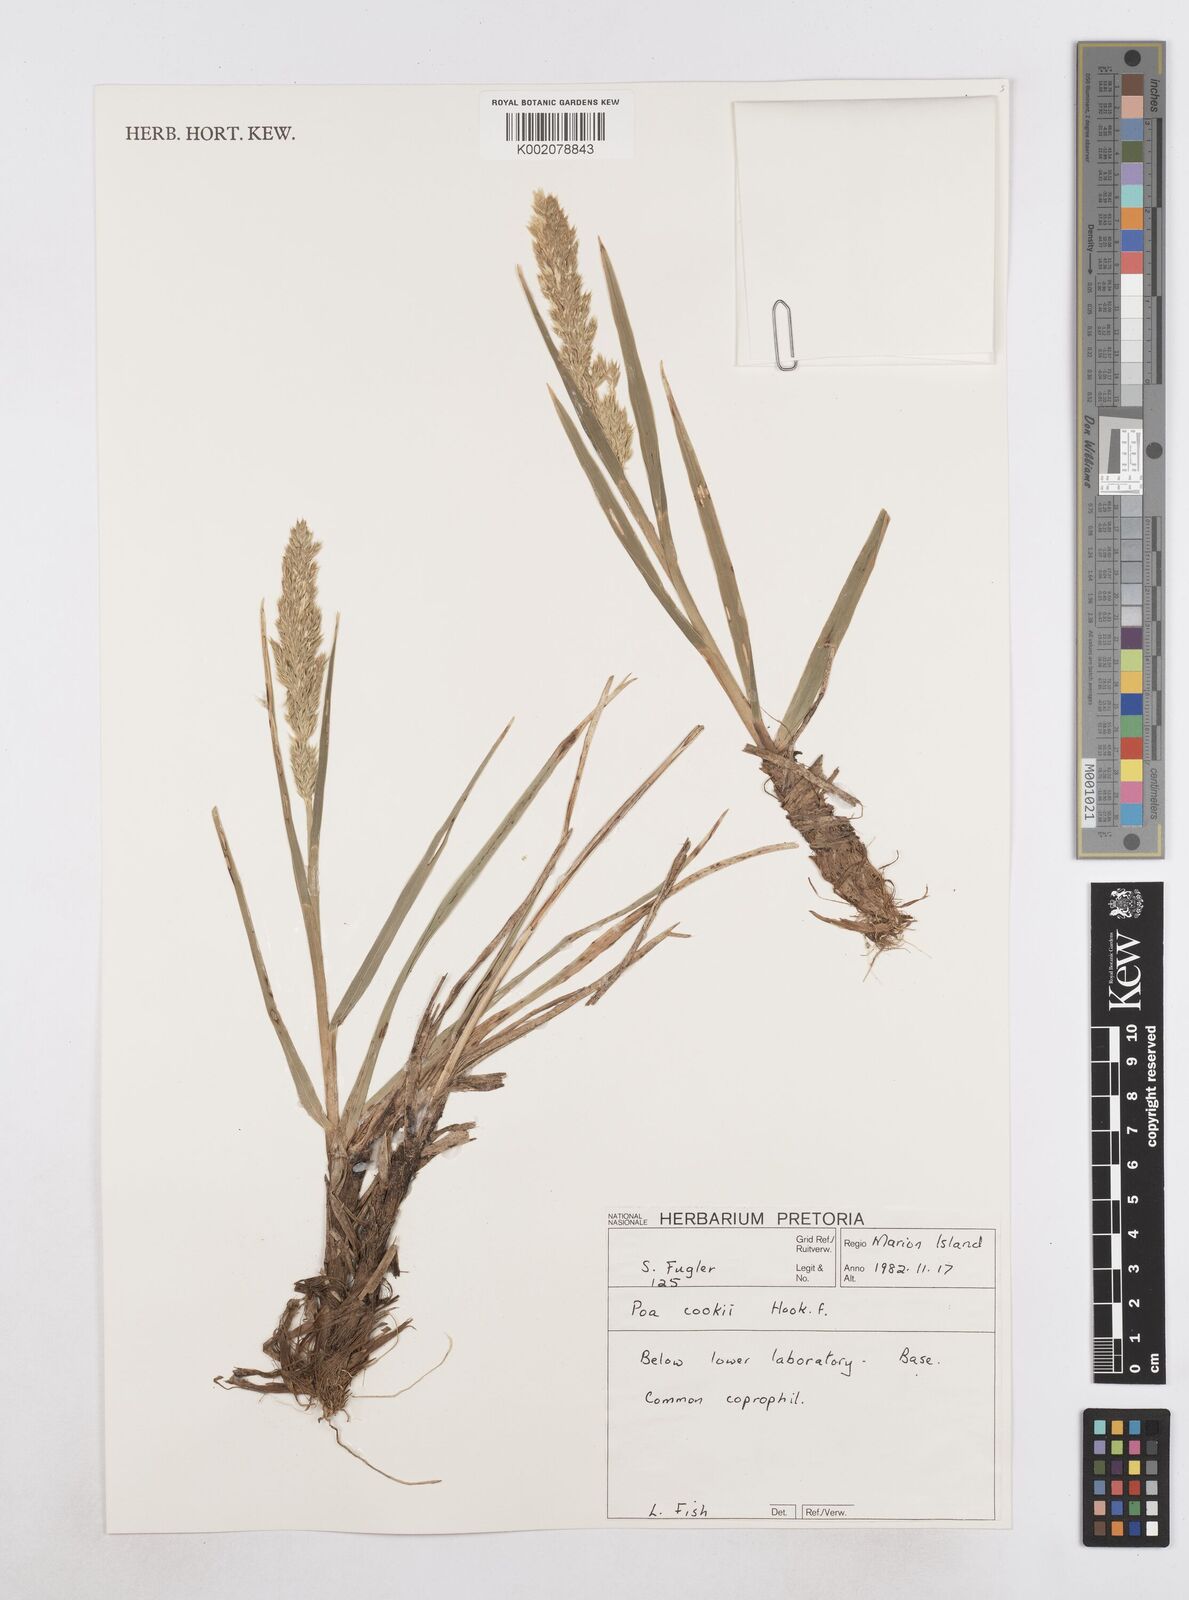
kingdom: Plantae
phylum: Tracheophyta
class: Liliopsida
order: Poales
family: Poaceae
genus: Poa
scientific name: Poa cookii
